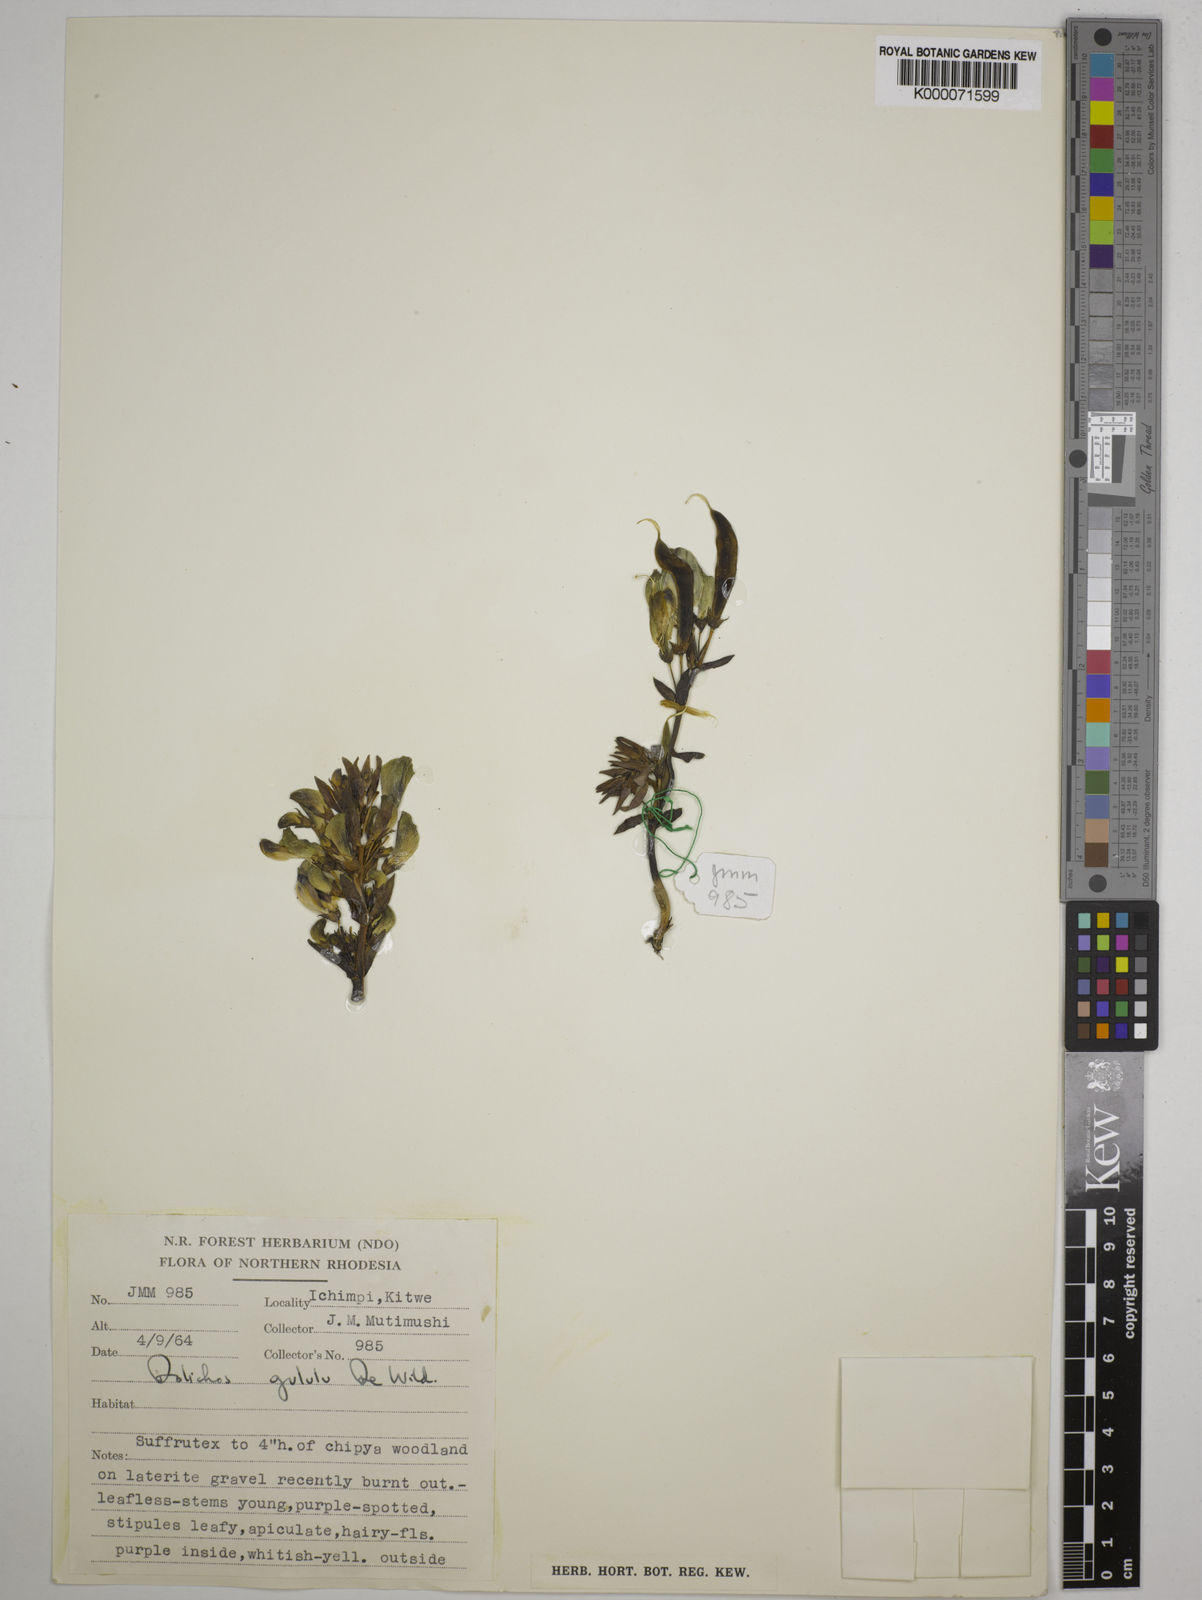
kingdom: Plantae
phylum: Tracheophyta
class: Magnoliopsida
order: Fabales
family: Fabaceae
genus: Dolichos
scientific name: Dolichos gululu
